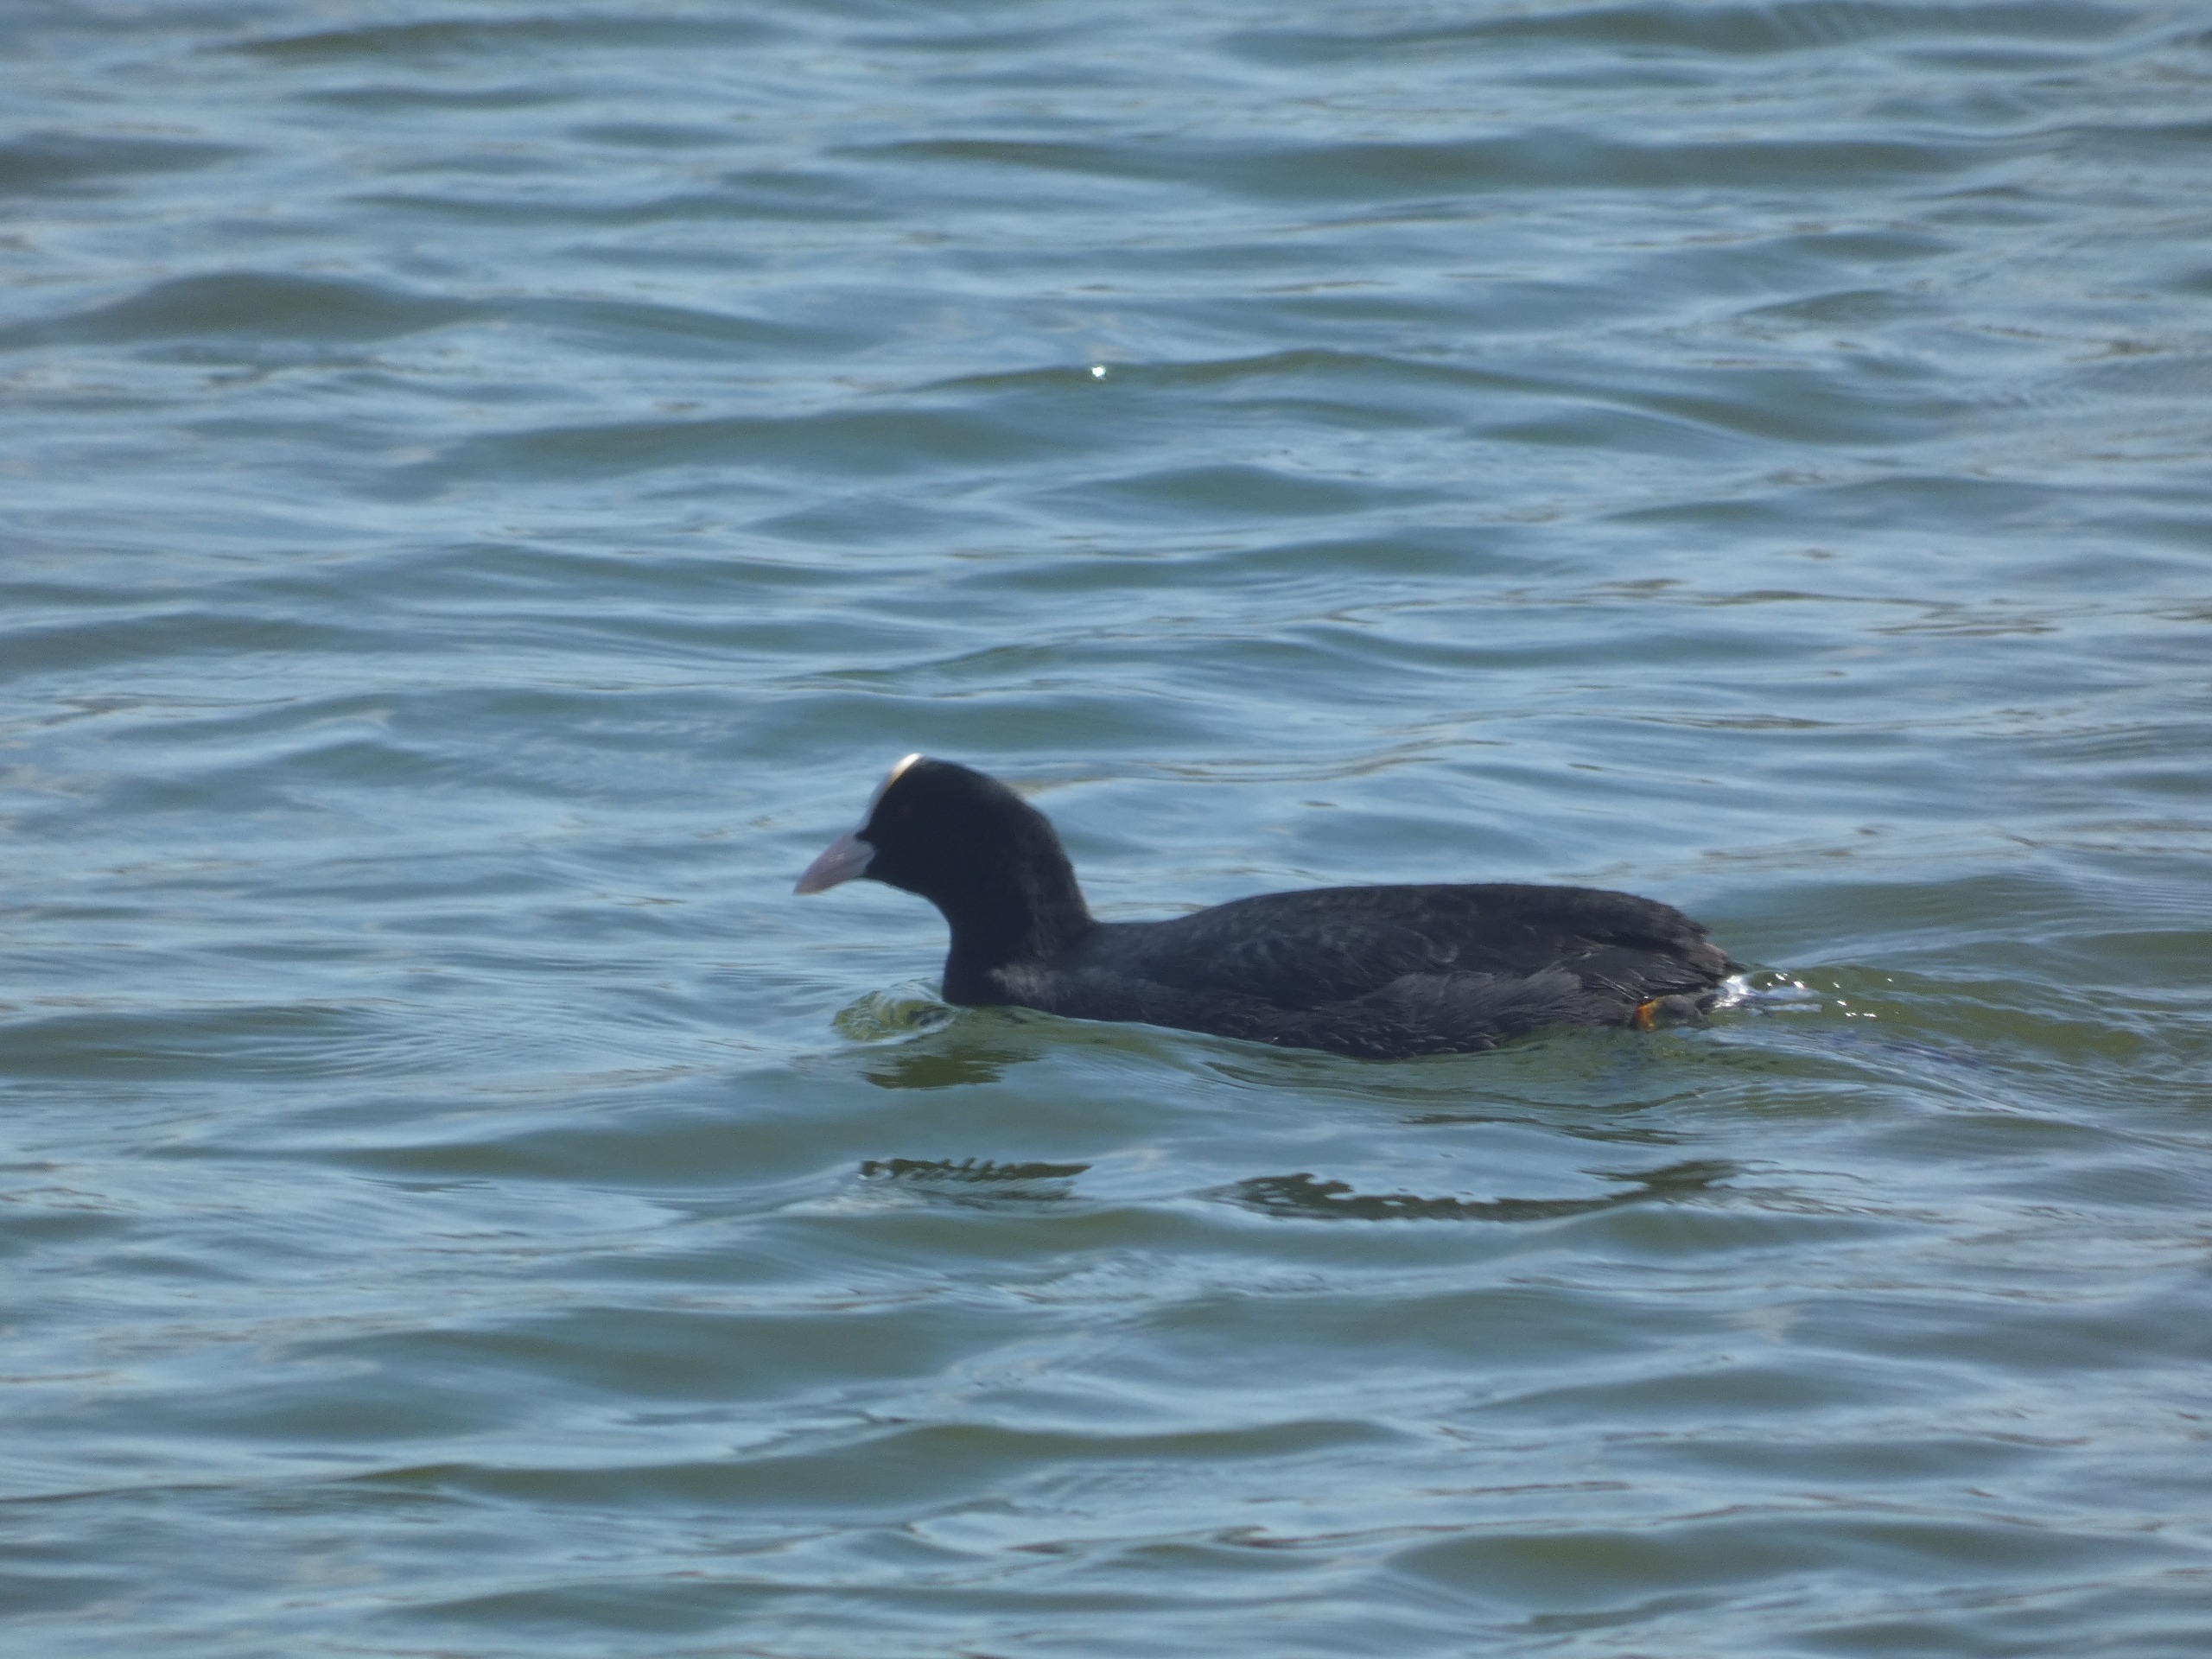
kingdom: Animalia
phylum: Chordata
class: Aves
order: Gruiformes
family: Rallidae
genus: Fulica
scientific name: Fulica atra
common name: Blishøne
